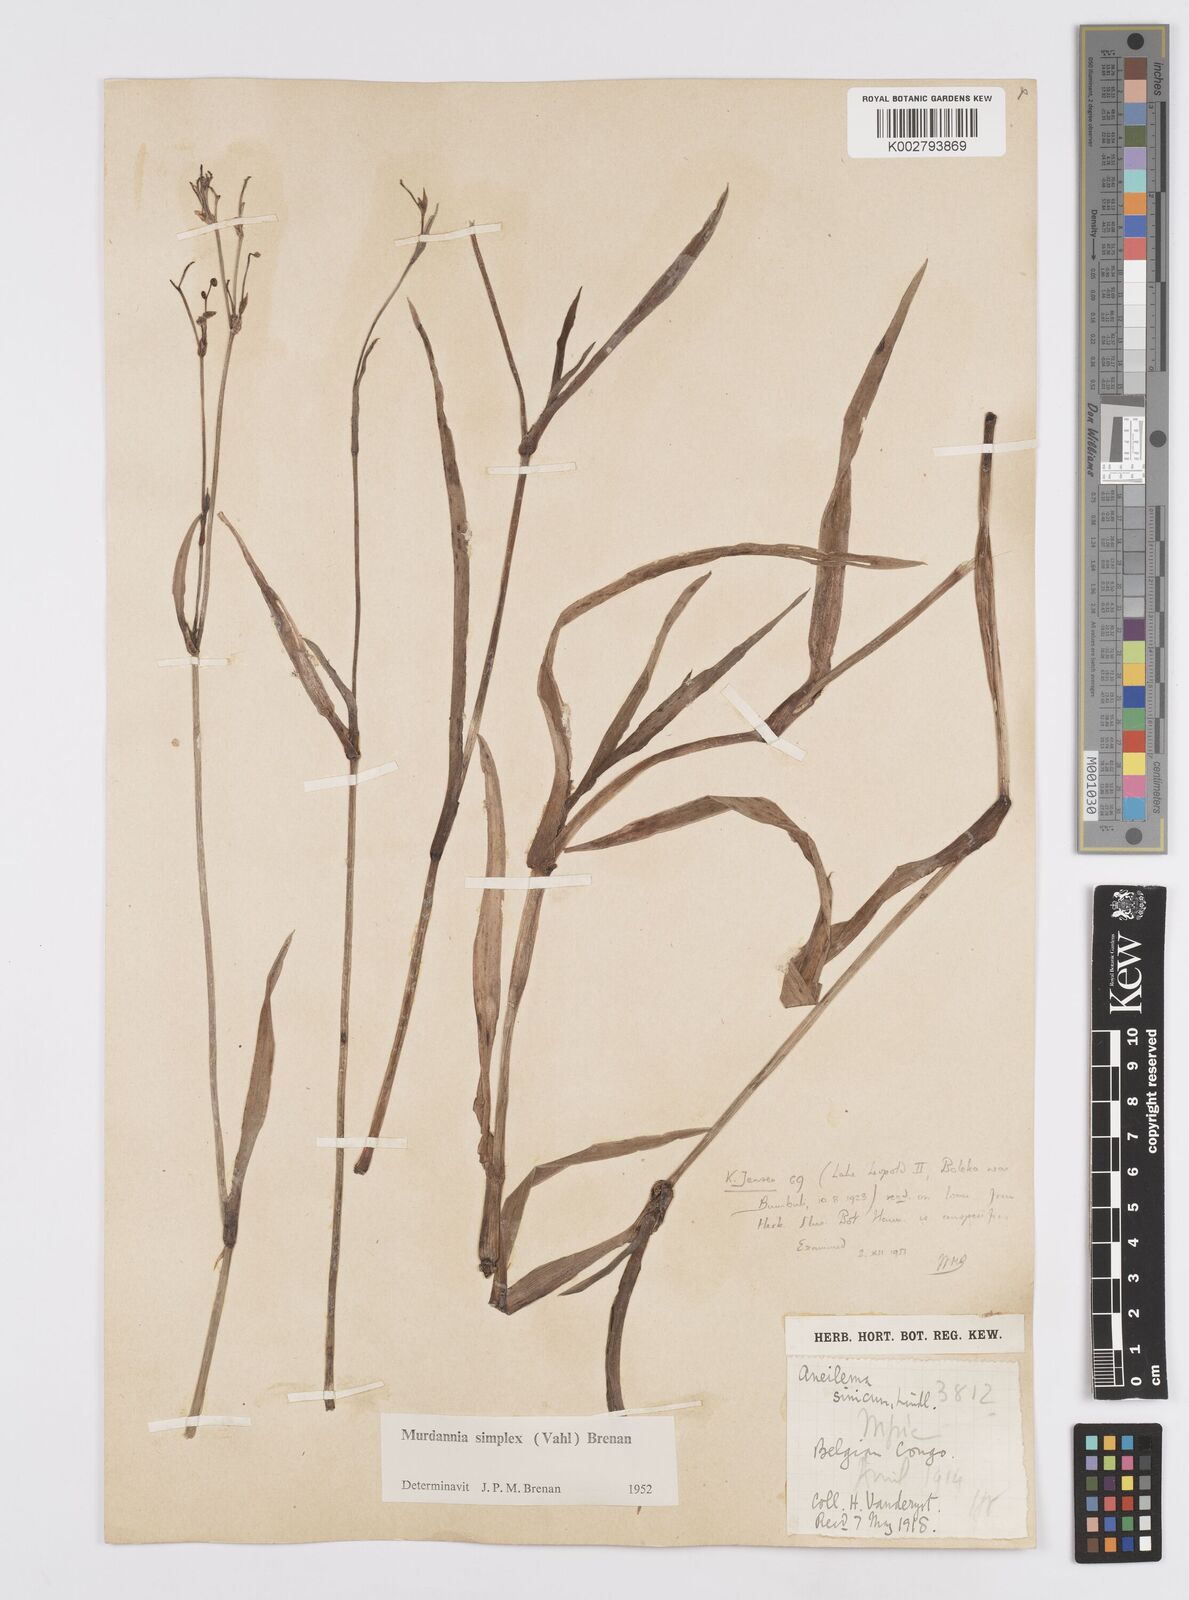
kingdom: Plantae
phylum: Tracheophyta
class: Liliopsida
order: Commelinales
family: Commelinaceae
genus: Murdannia
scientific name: Murdannia simplex
